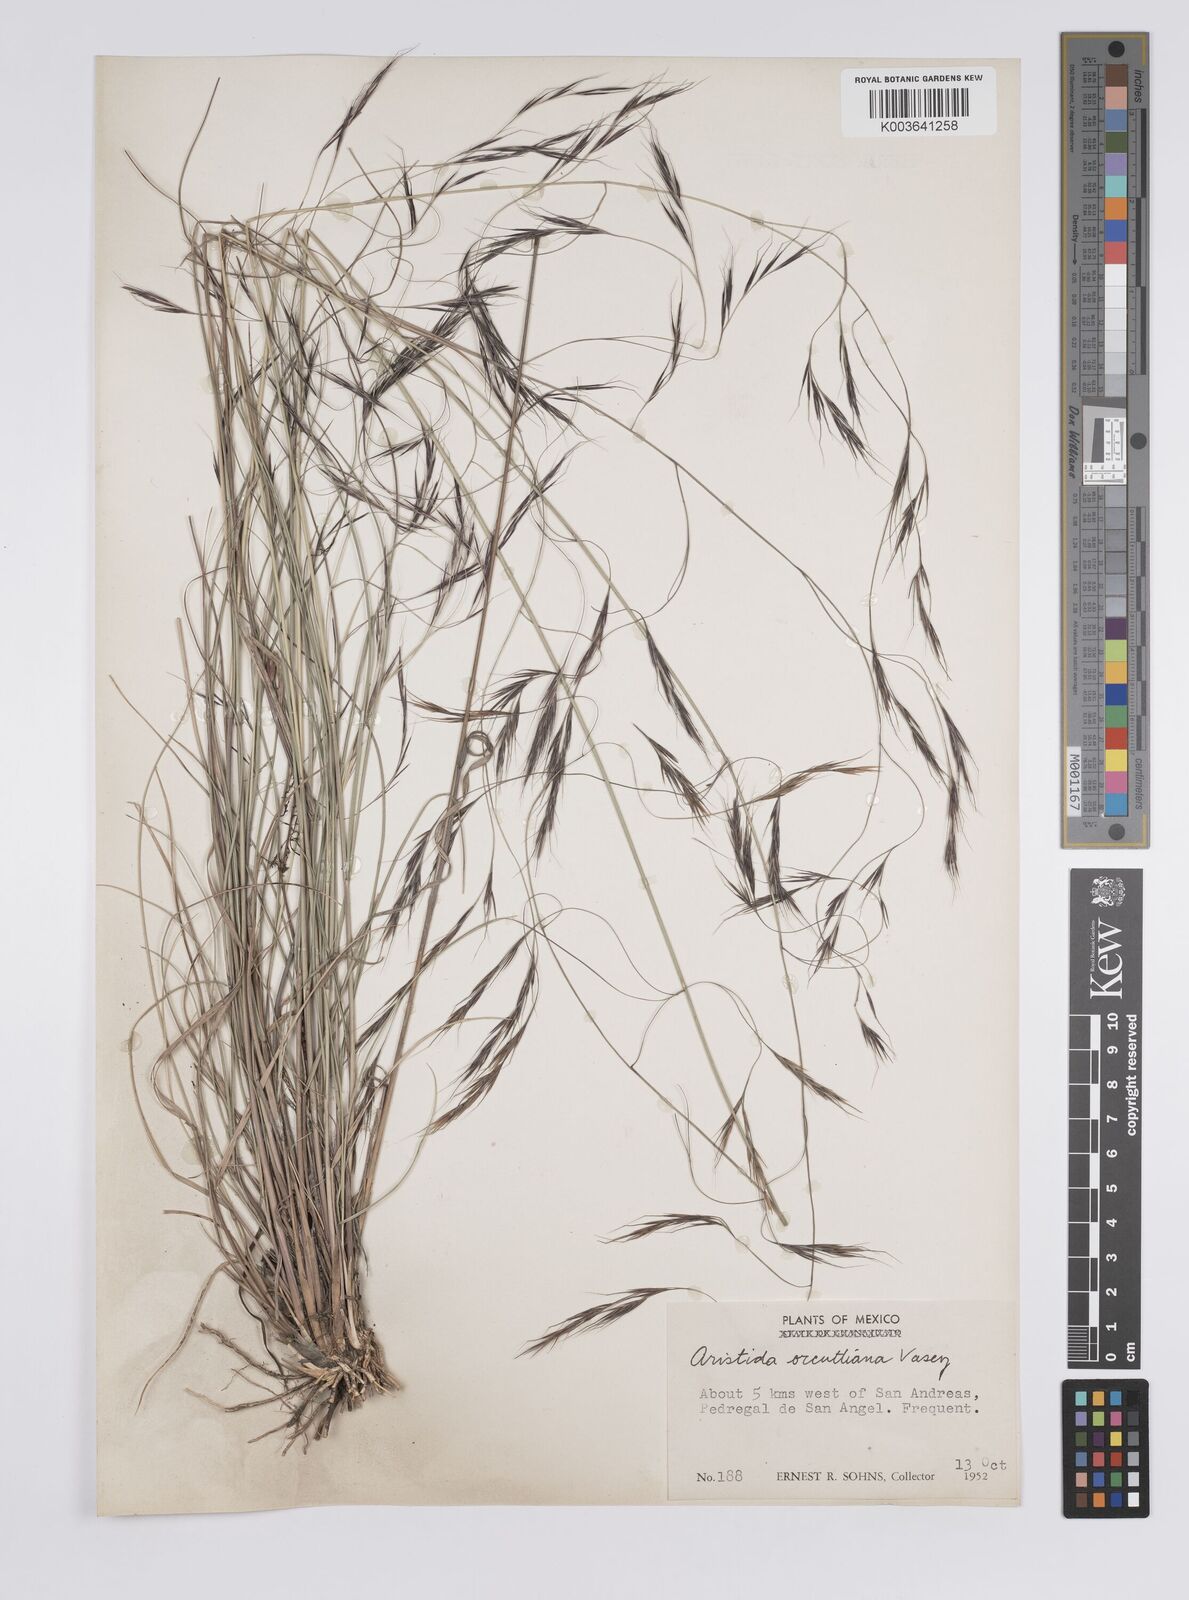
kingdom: Plantae
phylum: Tracheophyta
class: Liliopsida
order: Poales
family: Poaceae
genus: Aristida
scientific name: Aristida schiedeana
